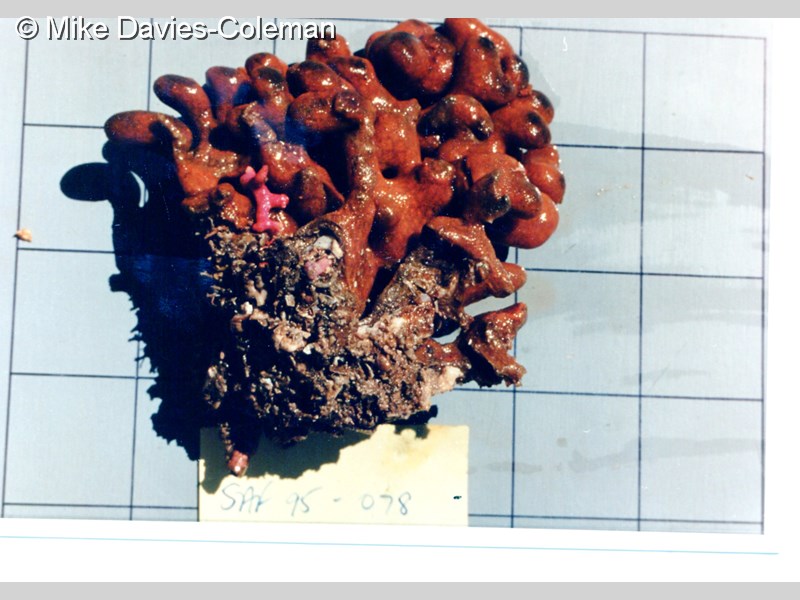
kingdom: Animalia
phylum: Chordata
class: Ascidiacea
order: Aplousobranchia
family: Polyclinidae
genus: Polyclinum
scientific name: Polyclinum
